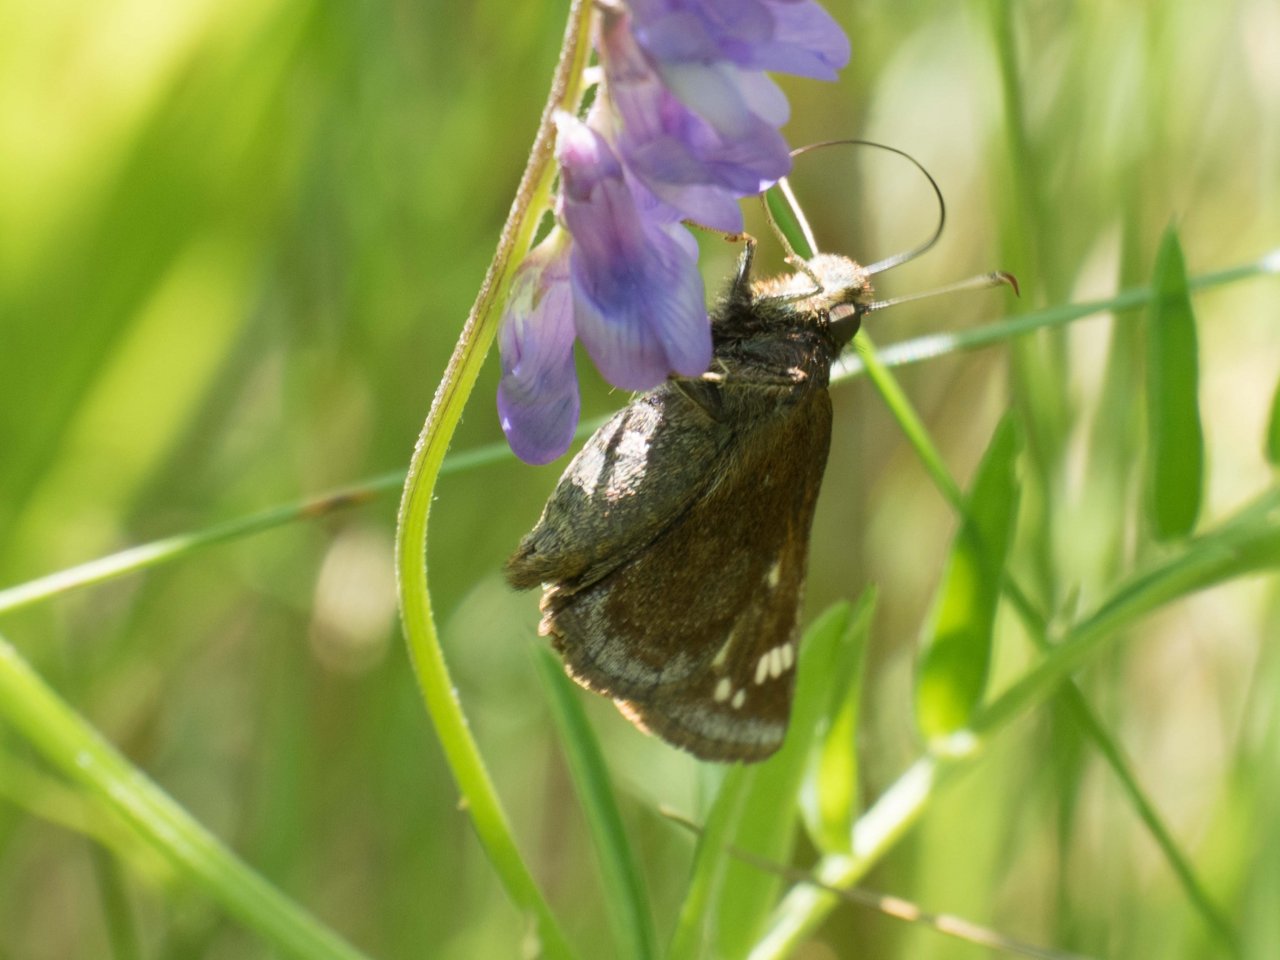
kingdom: Animalia
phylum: Arthropoda
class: Insecta
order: Lepidoptera
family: Hesperiidae
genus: Lon
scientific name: Lon hobomok
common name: Hobomok Skipper
